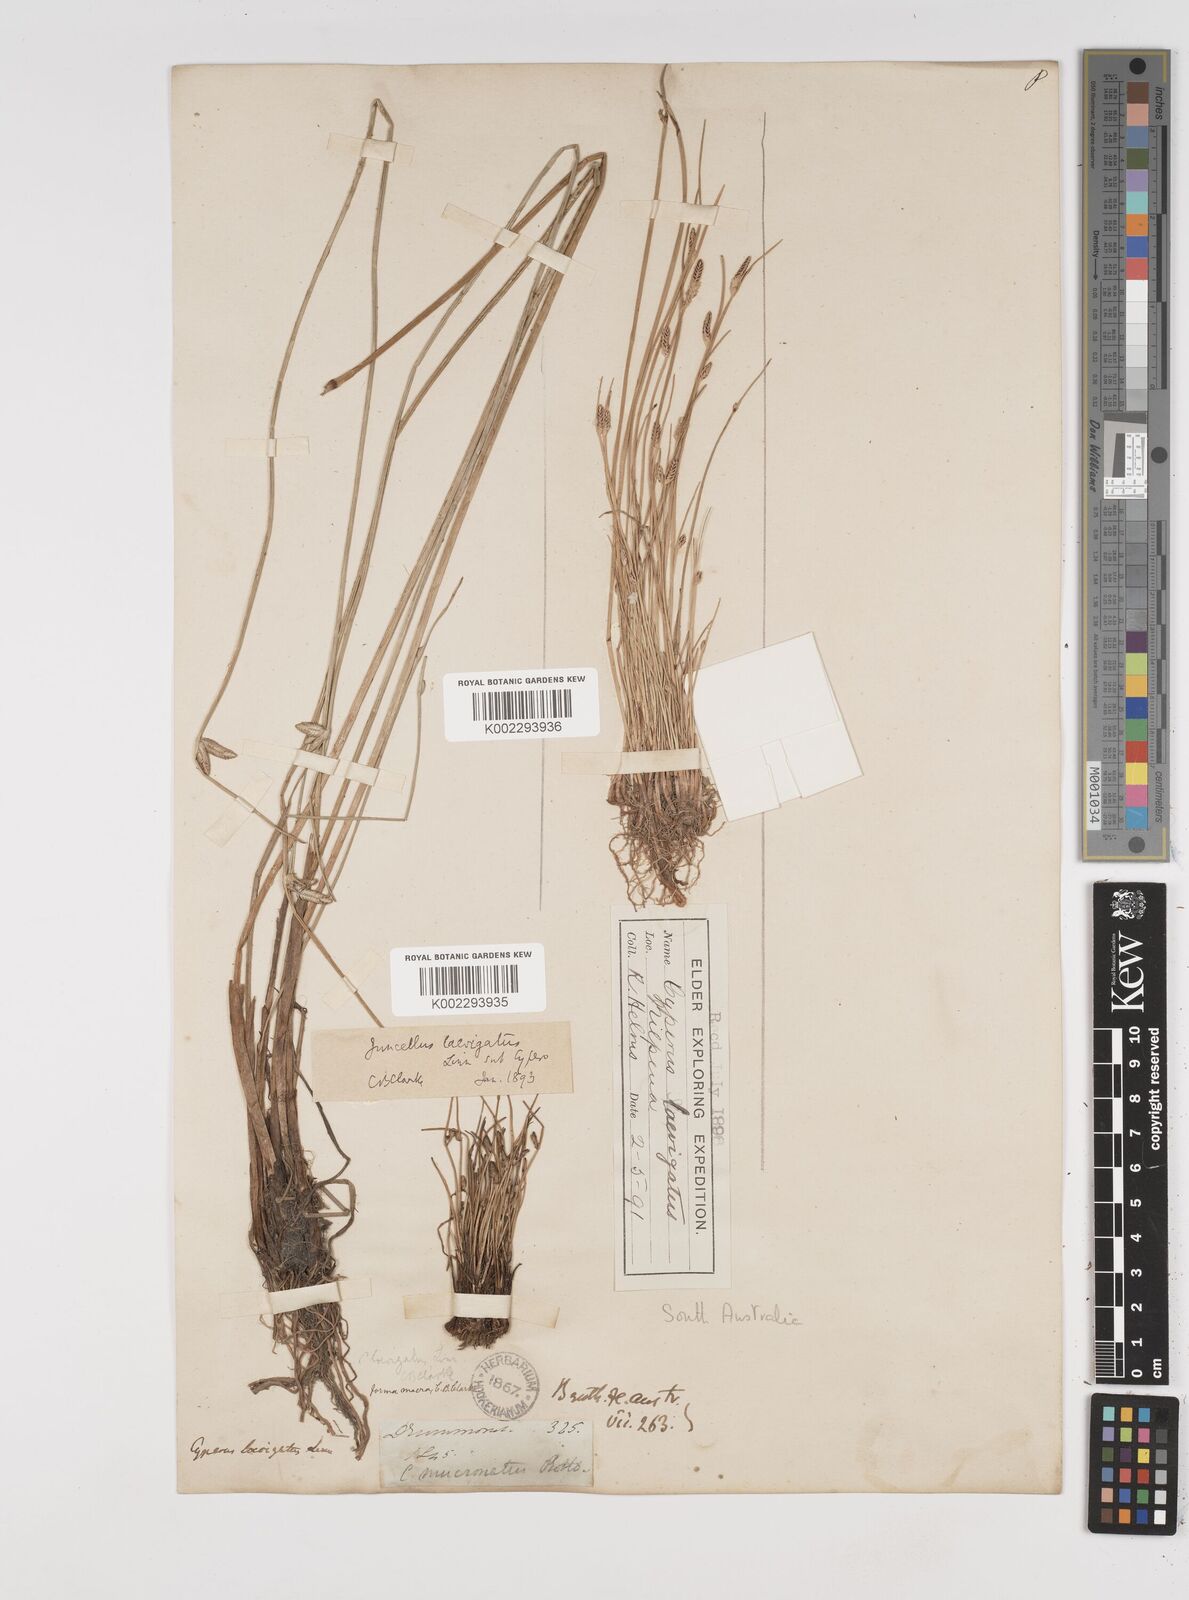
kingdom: Plantae
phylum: Tracheophyta
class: Liliopsida
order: Poales
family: Cyperaceae
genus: Cyperus
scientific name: Cyperus laevigatus
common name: Smooth flat sedge
